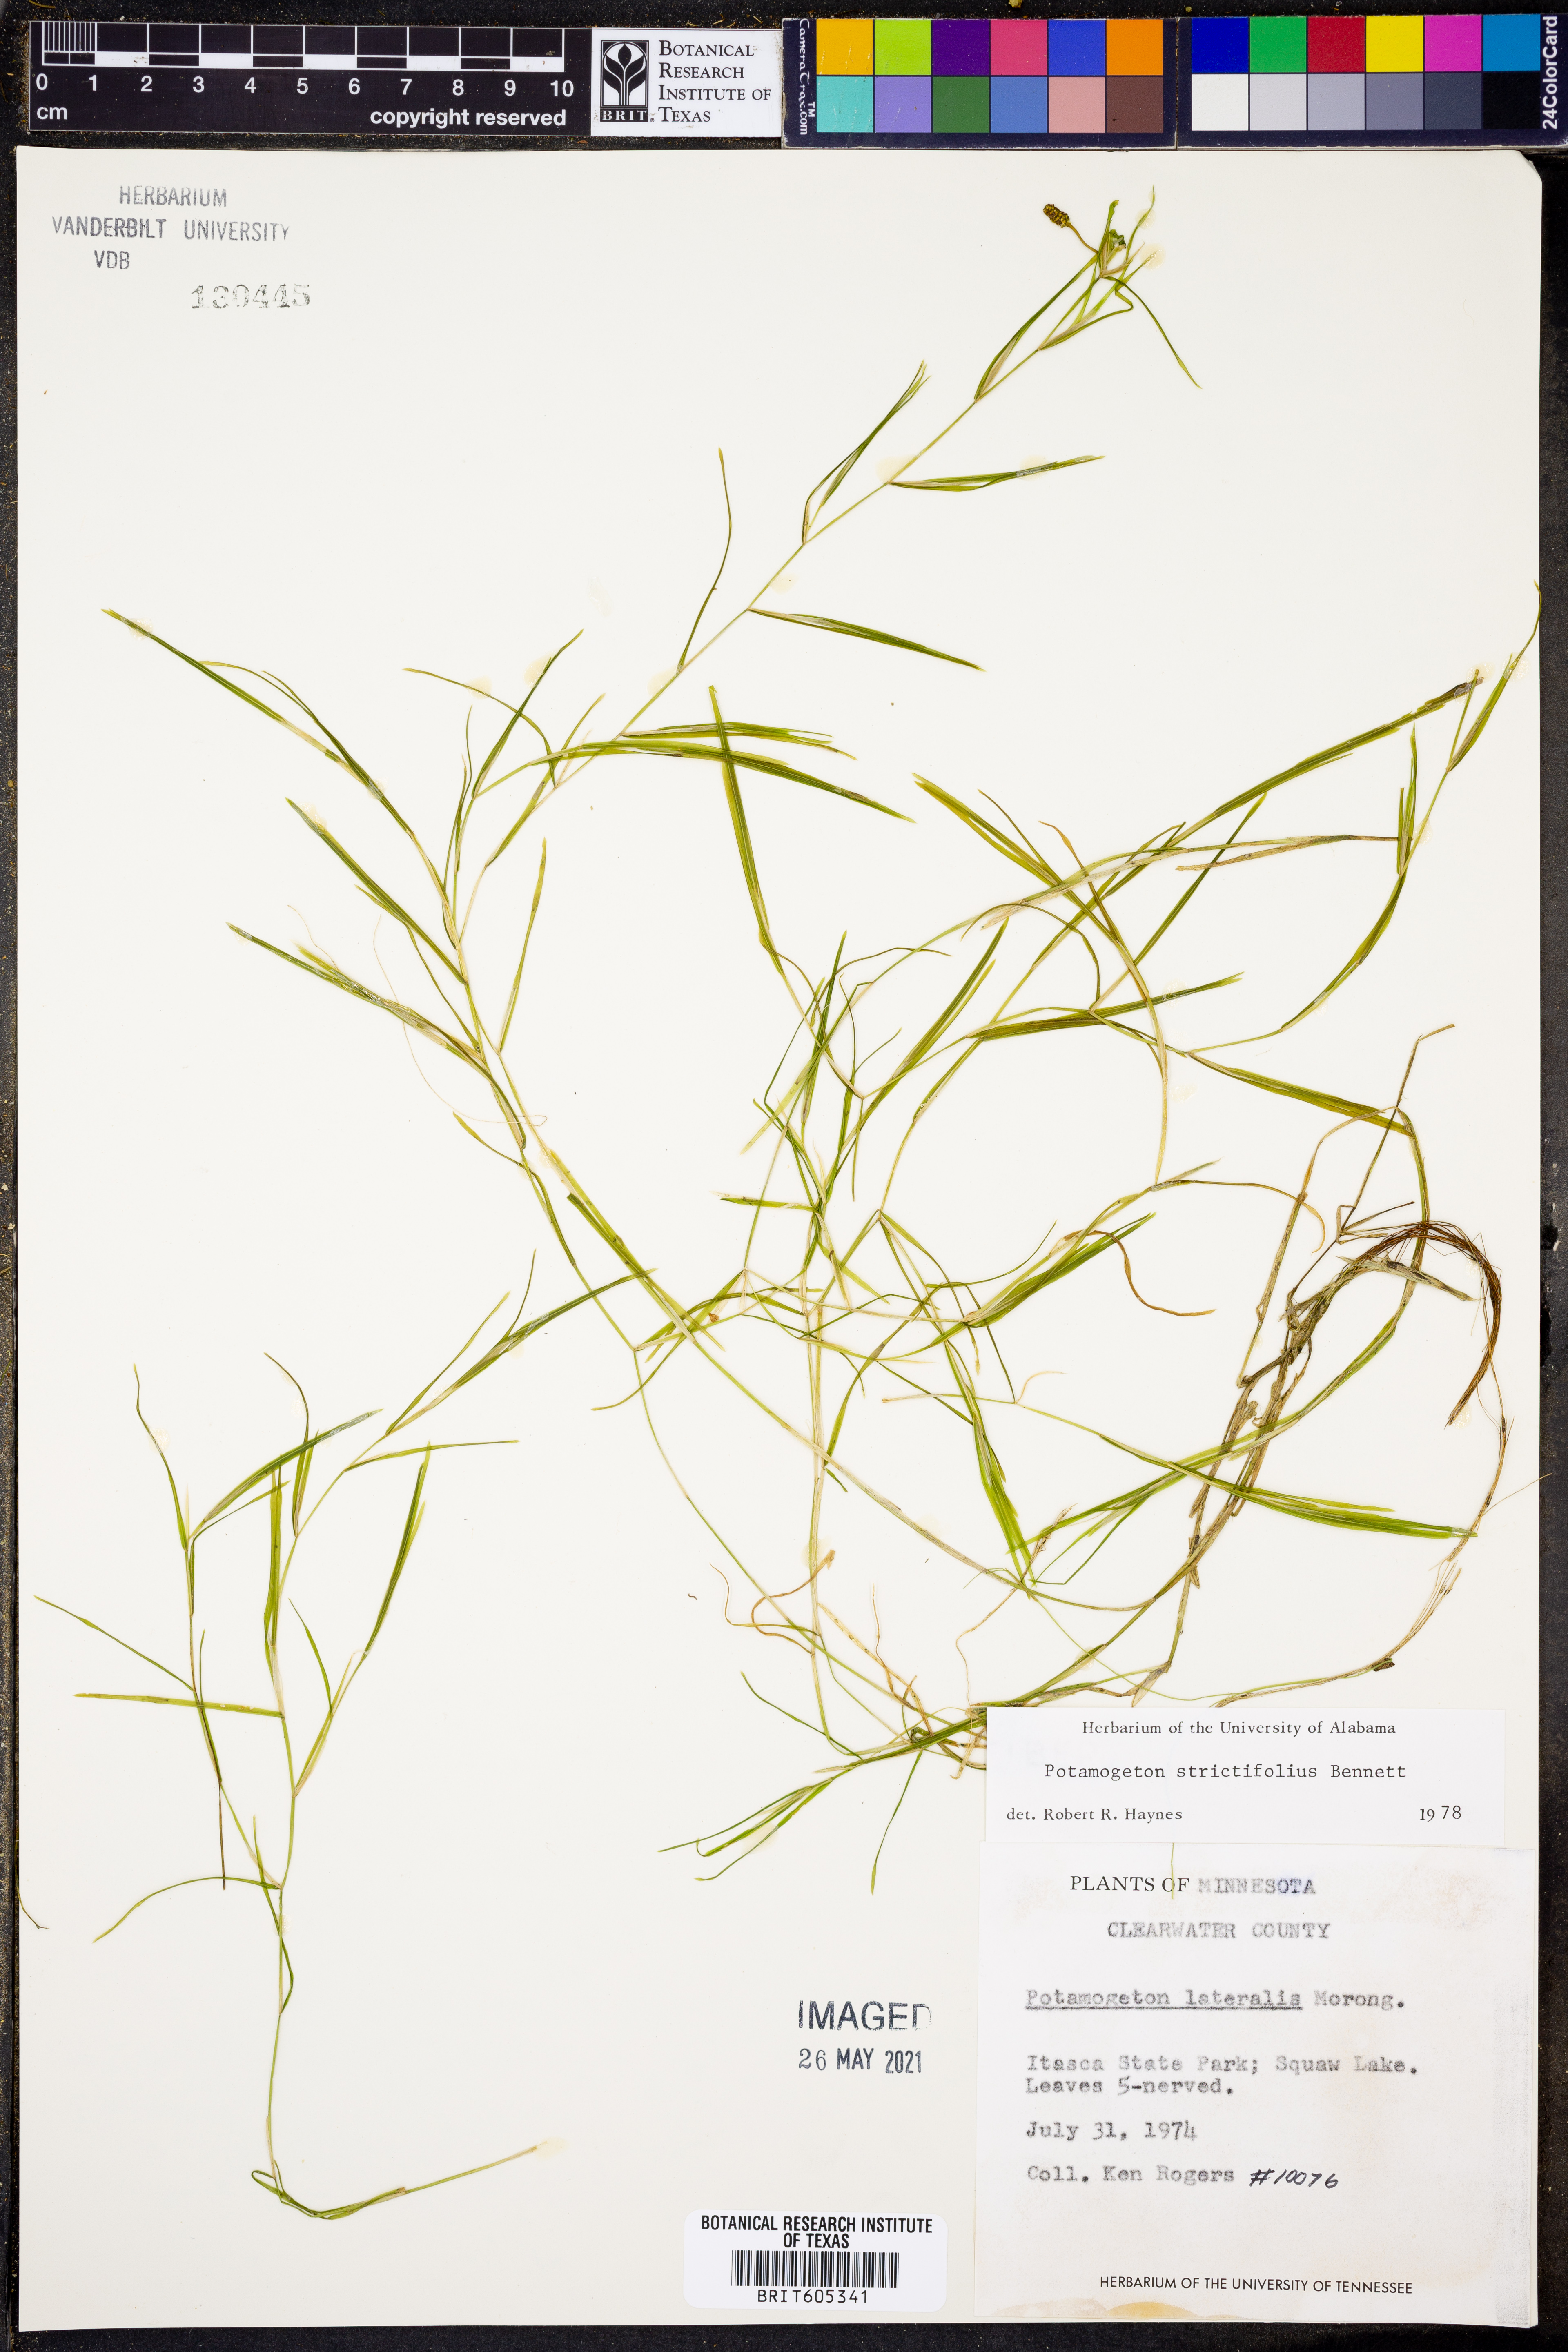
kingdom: Plantae
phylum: Tracheophyta
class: Liliopsida
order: Alismatales
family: Potamogetonaceae
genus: Potamogeton
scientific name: Potamogeton strictifolius
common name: Linear-leaved pondweed
